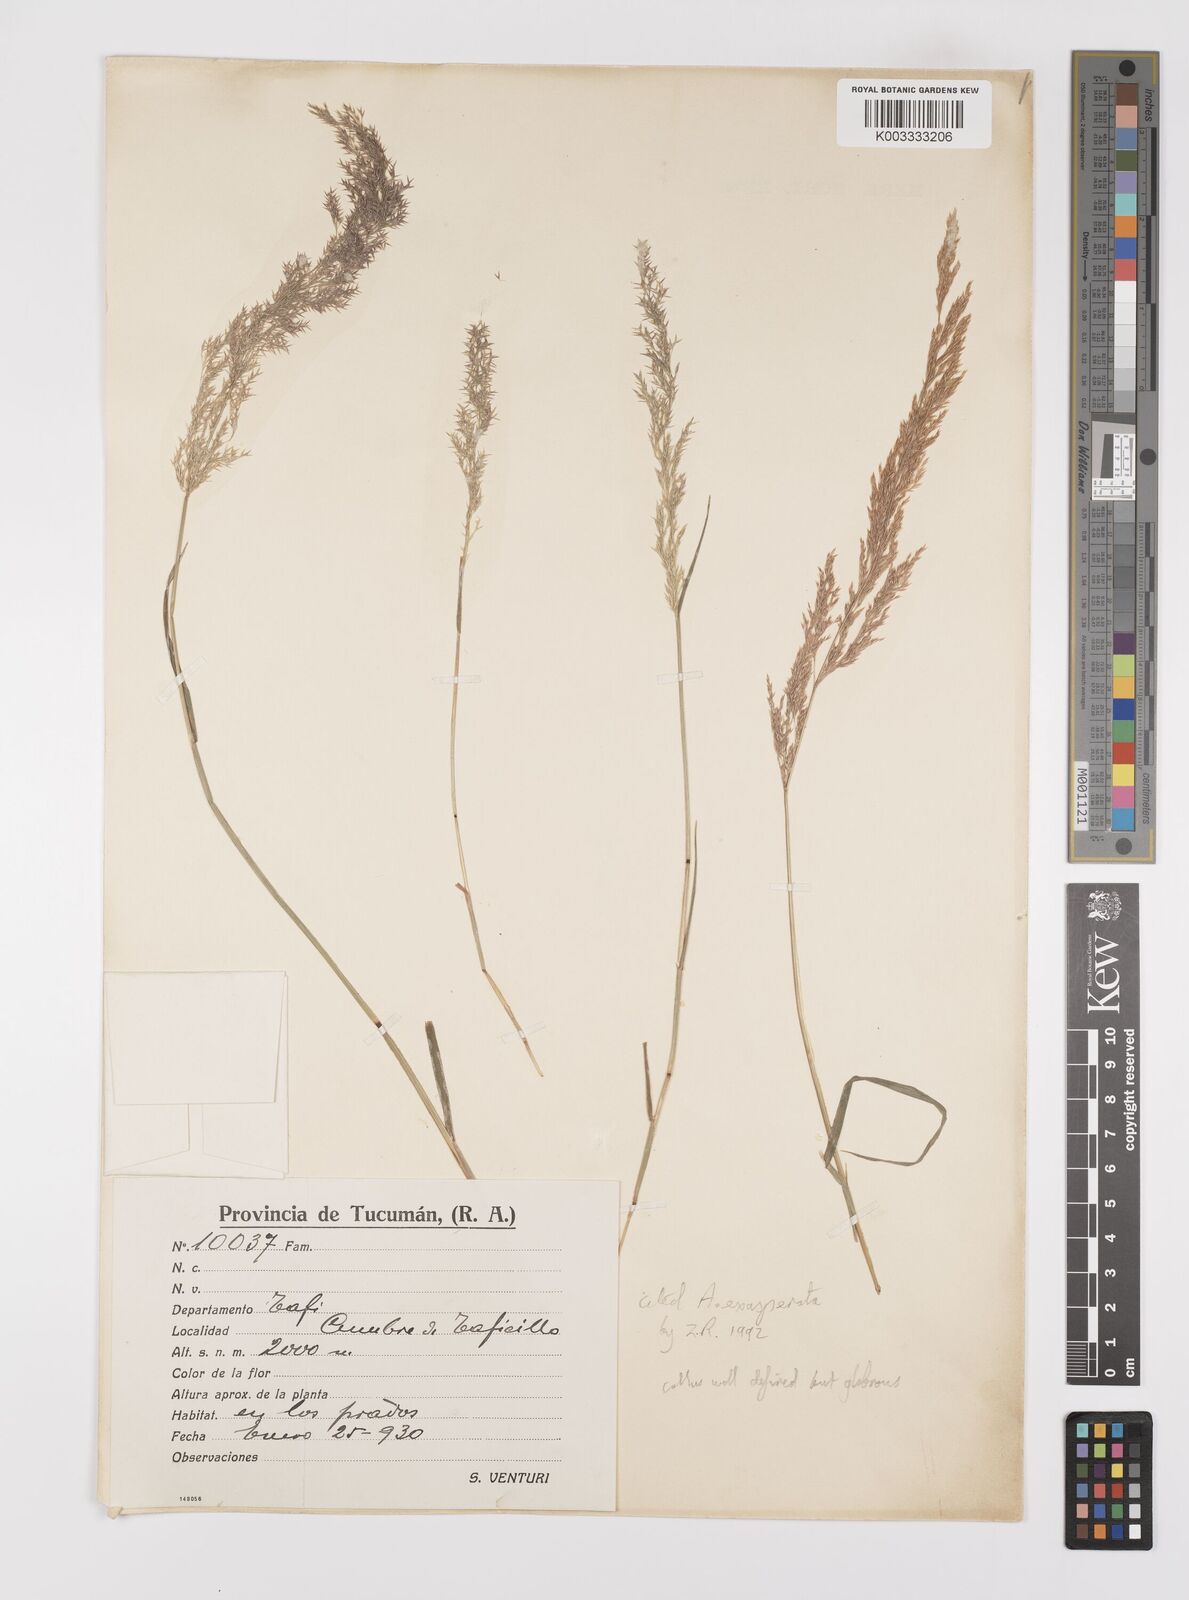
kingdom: Plantae
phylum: Tracheophyta
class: Liliopsida
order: Poales
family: Poaceae
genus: Polypogon
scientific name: Polypogon exasperatus
